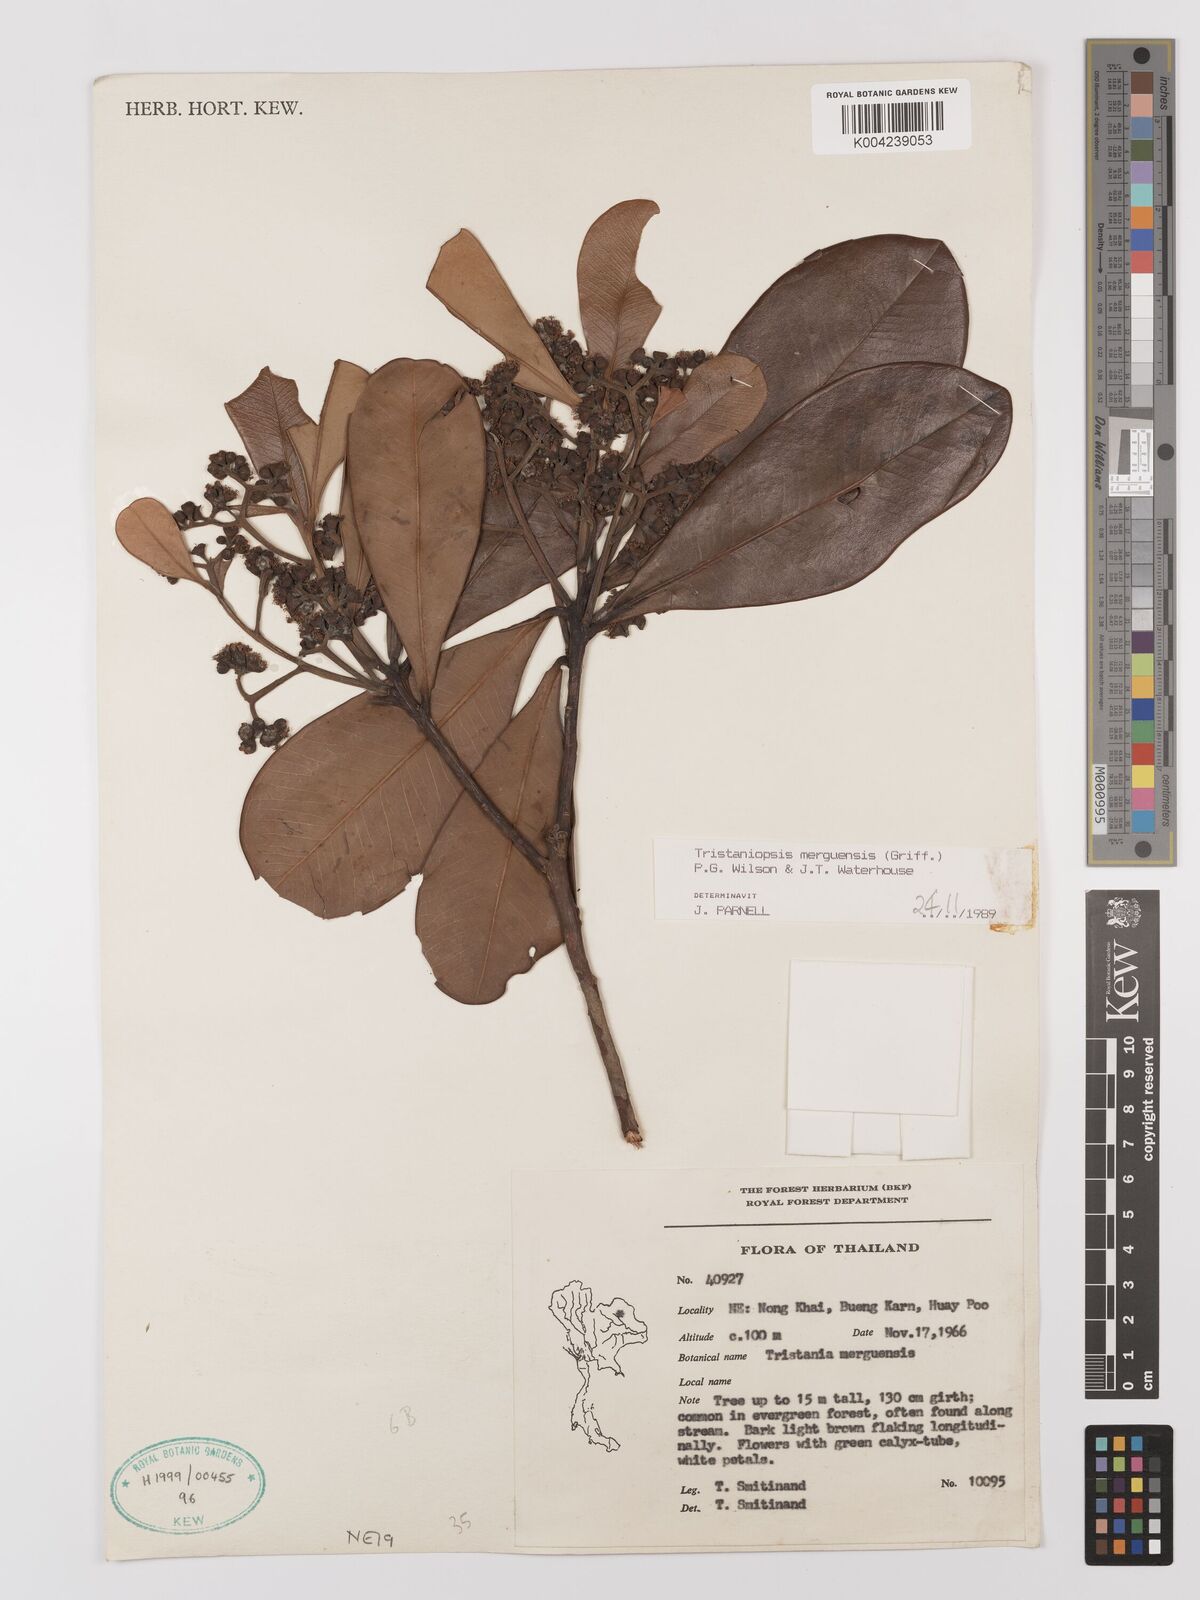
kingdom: Plantae
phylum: Tracheophyta
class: Magnoliopsida
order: Myrtales
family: Myrtaceae
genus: Tristaniopsis
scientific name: Tristaniopsis merguensis
